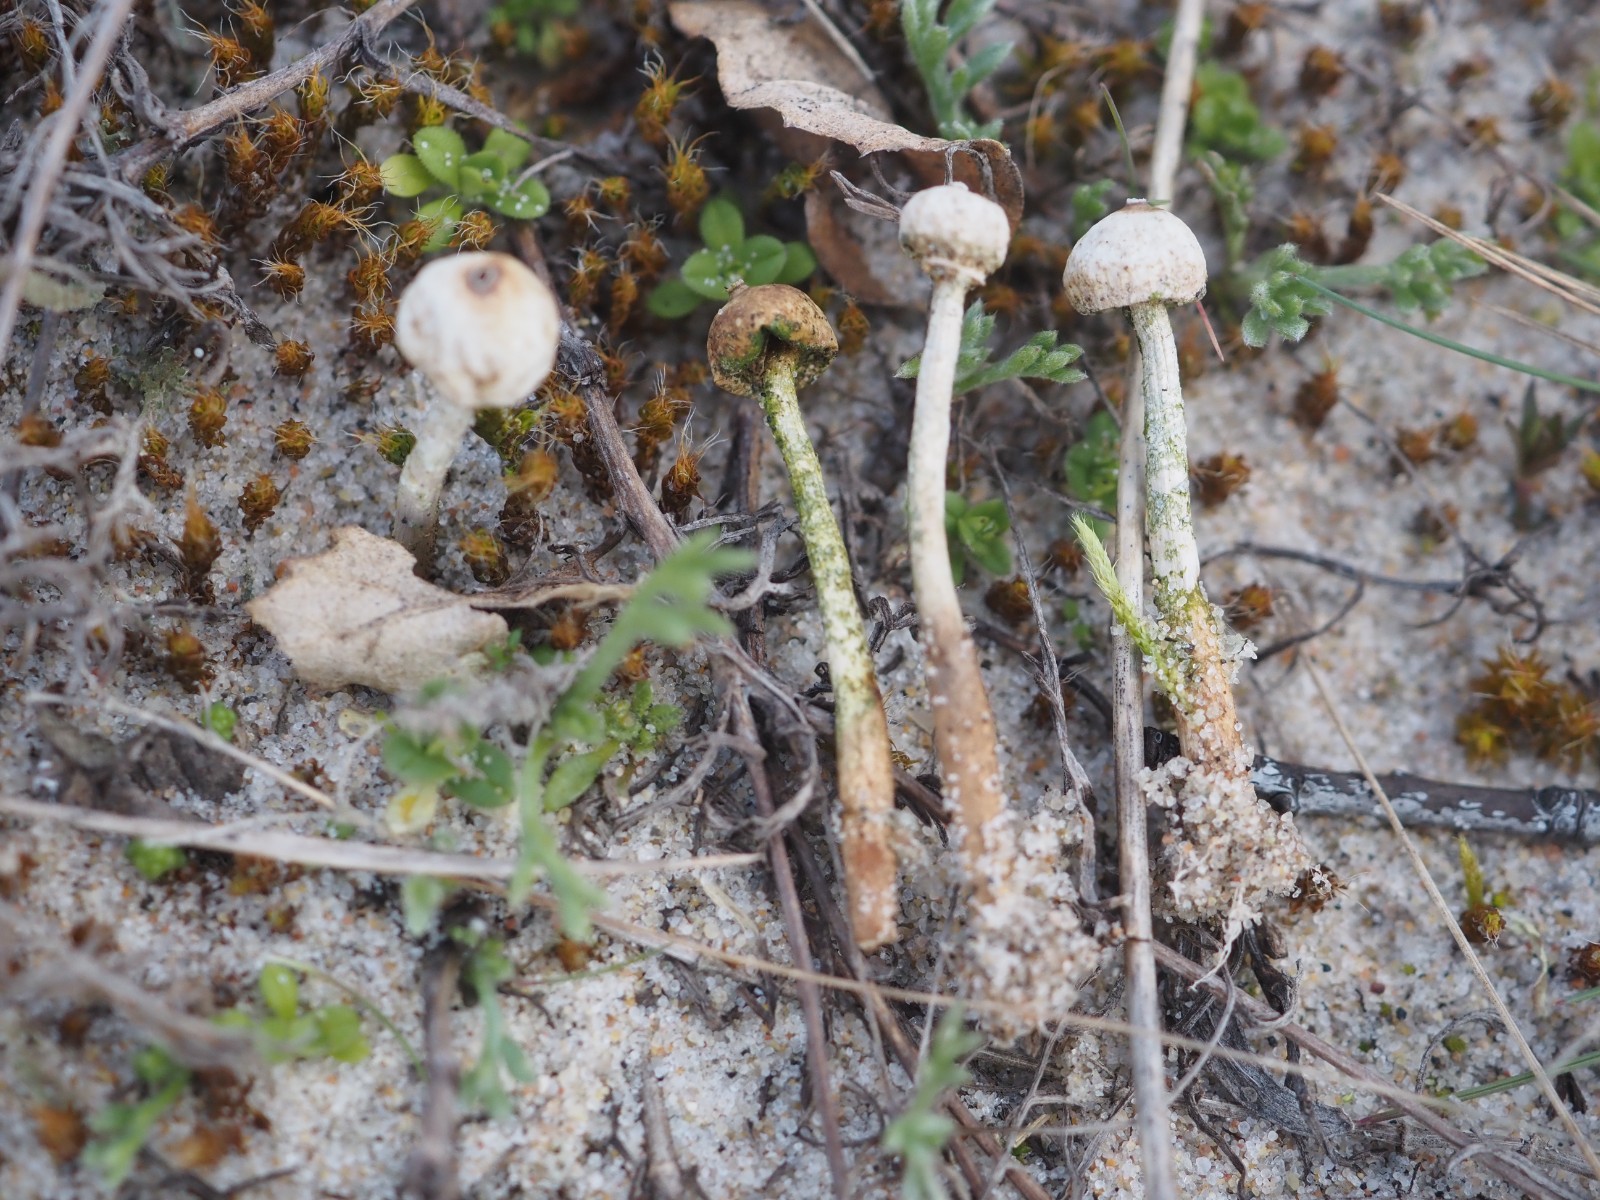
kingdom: Fungi
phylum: Basidiomycota
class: Agaricomycetes
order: Agaricales
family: Agaricaceae
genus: Tulostoma
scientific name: Tulostoma brumale
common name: vinter-stilkbovist
